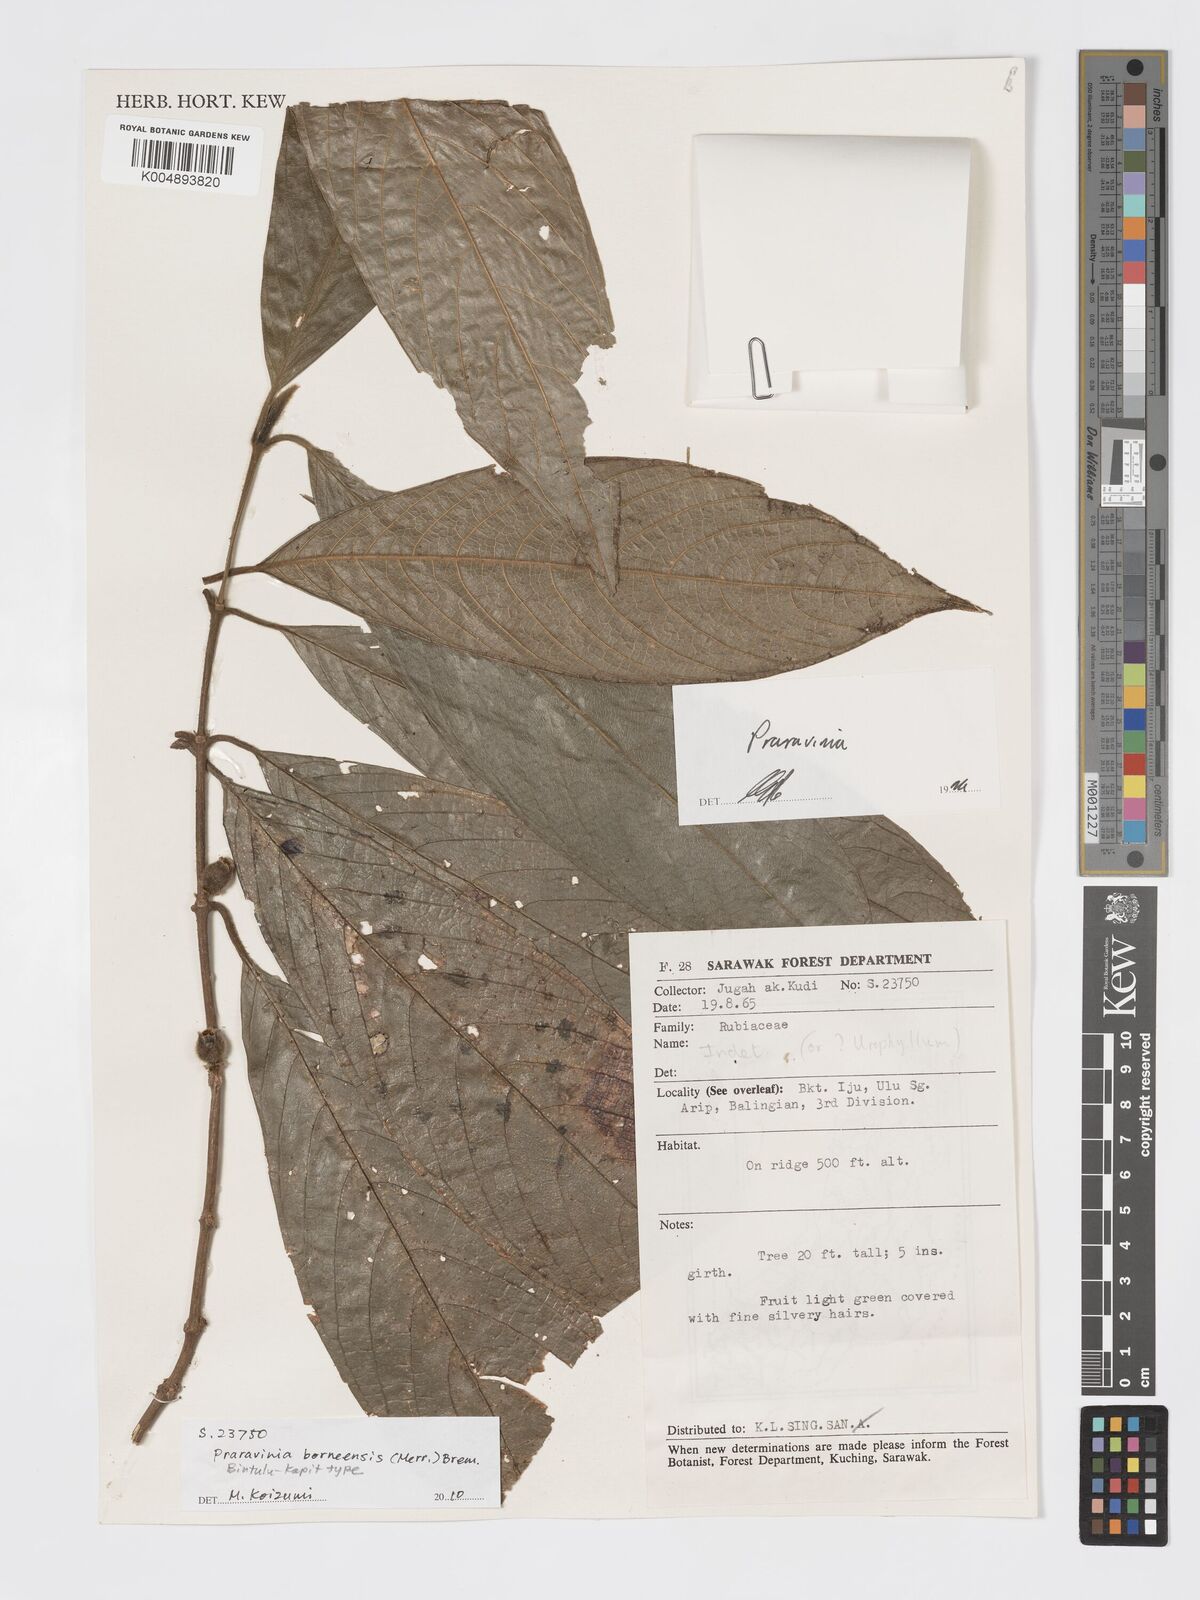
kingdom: Plantae
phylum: Tracheophyta
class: Magnoliopsida
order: Gentianales
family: Rubiaceae
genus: Praravinia
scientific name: Praravinia borneensis
